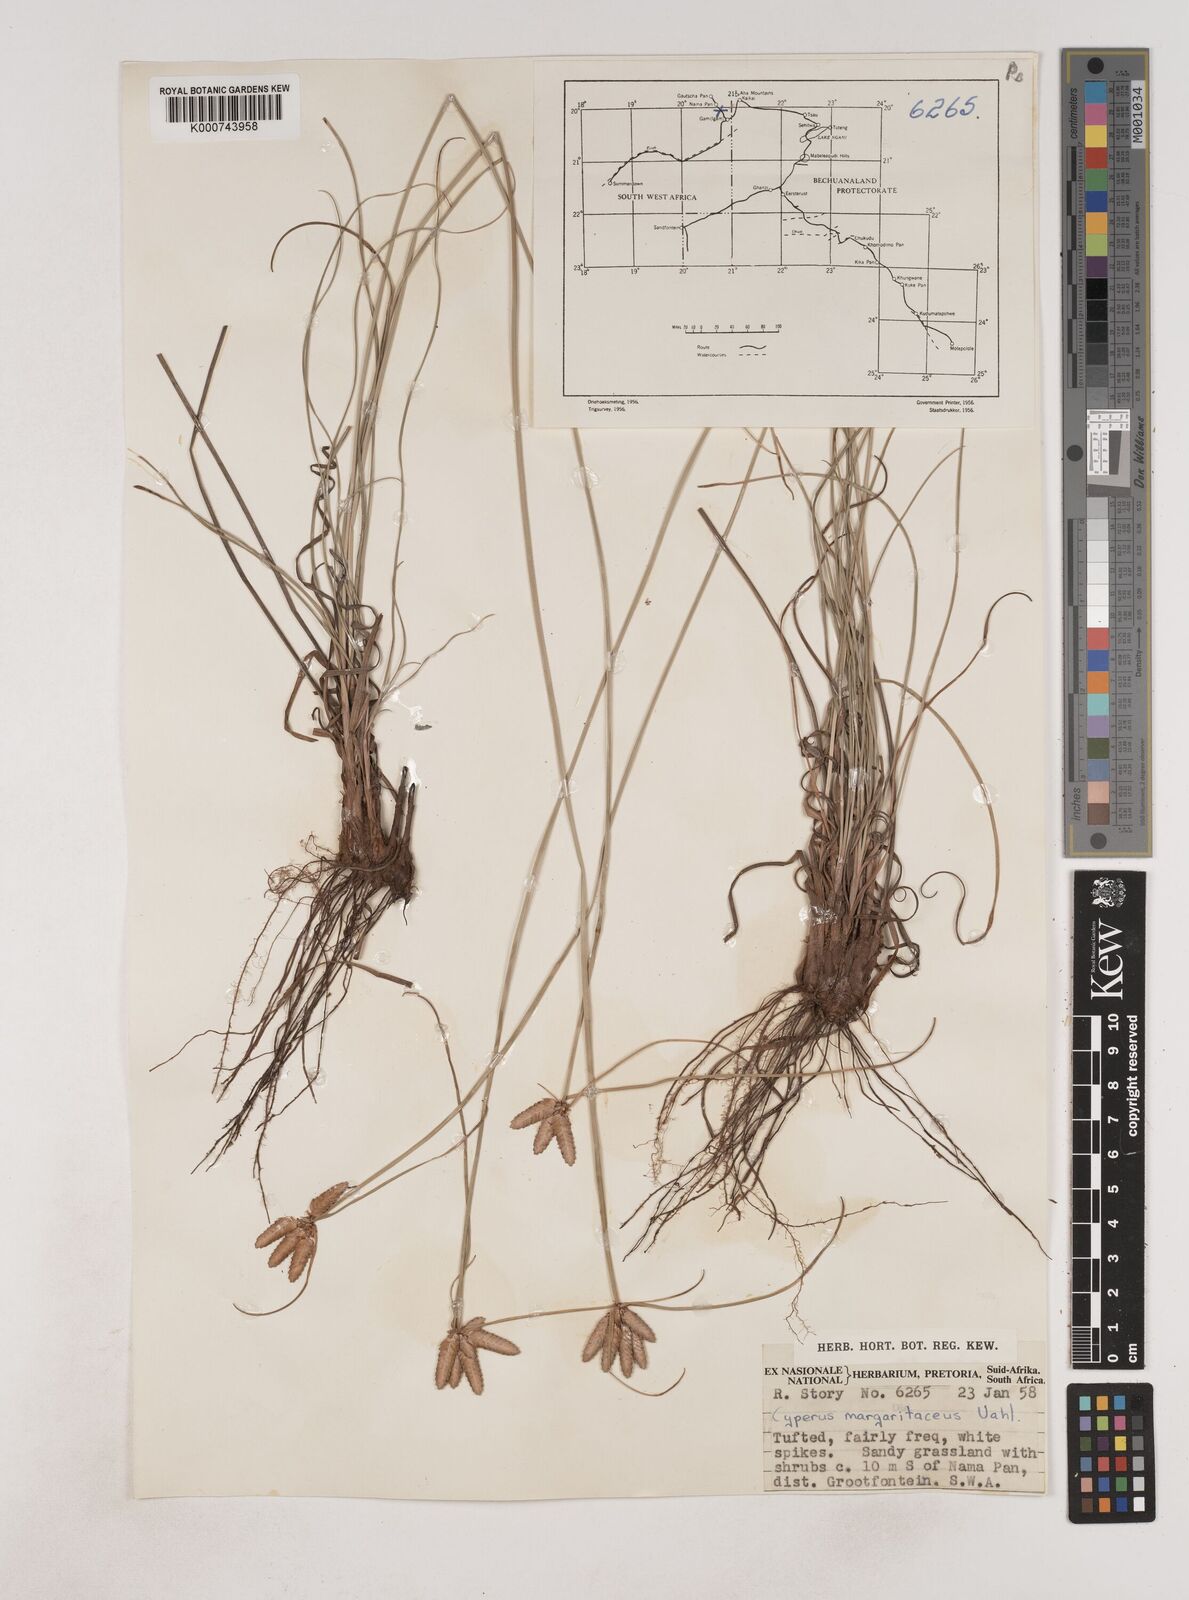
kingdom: Plantae
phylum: Tracheophyta
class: Liliopsida
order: Poales
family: Cyperaceae
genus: Cyperus
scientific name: Cyperus margaritaceus
